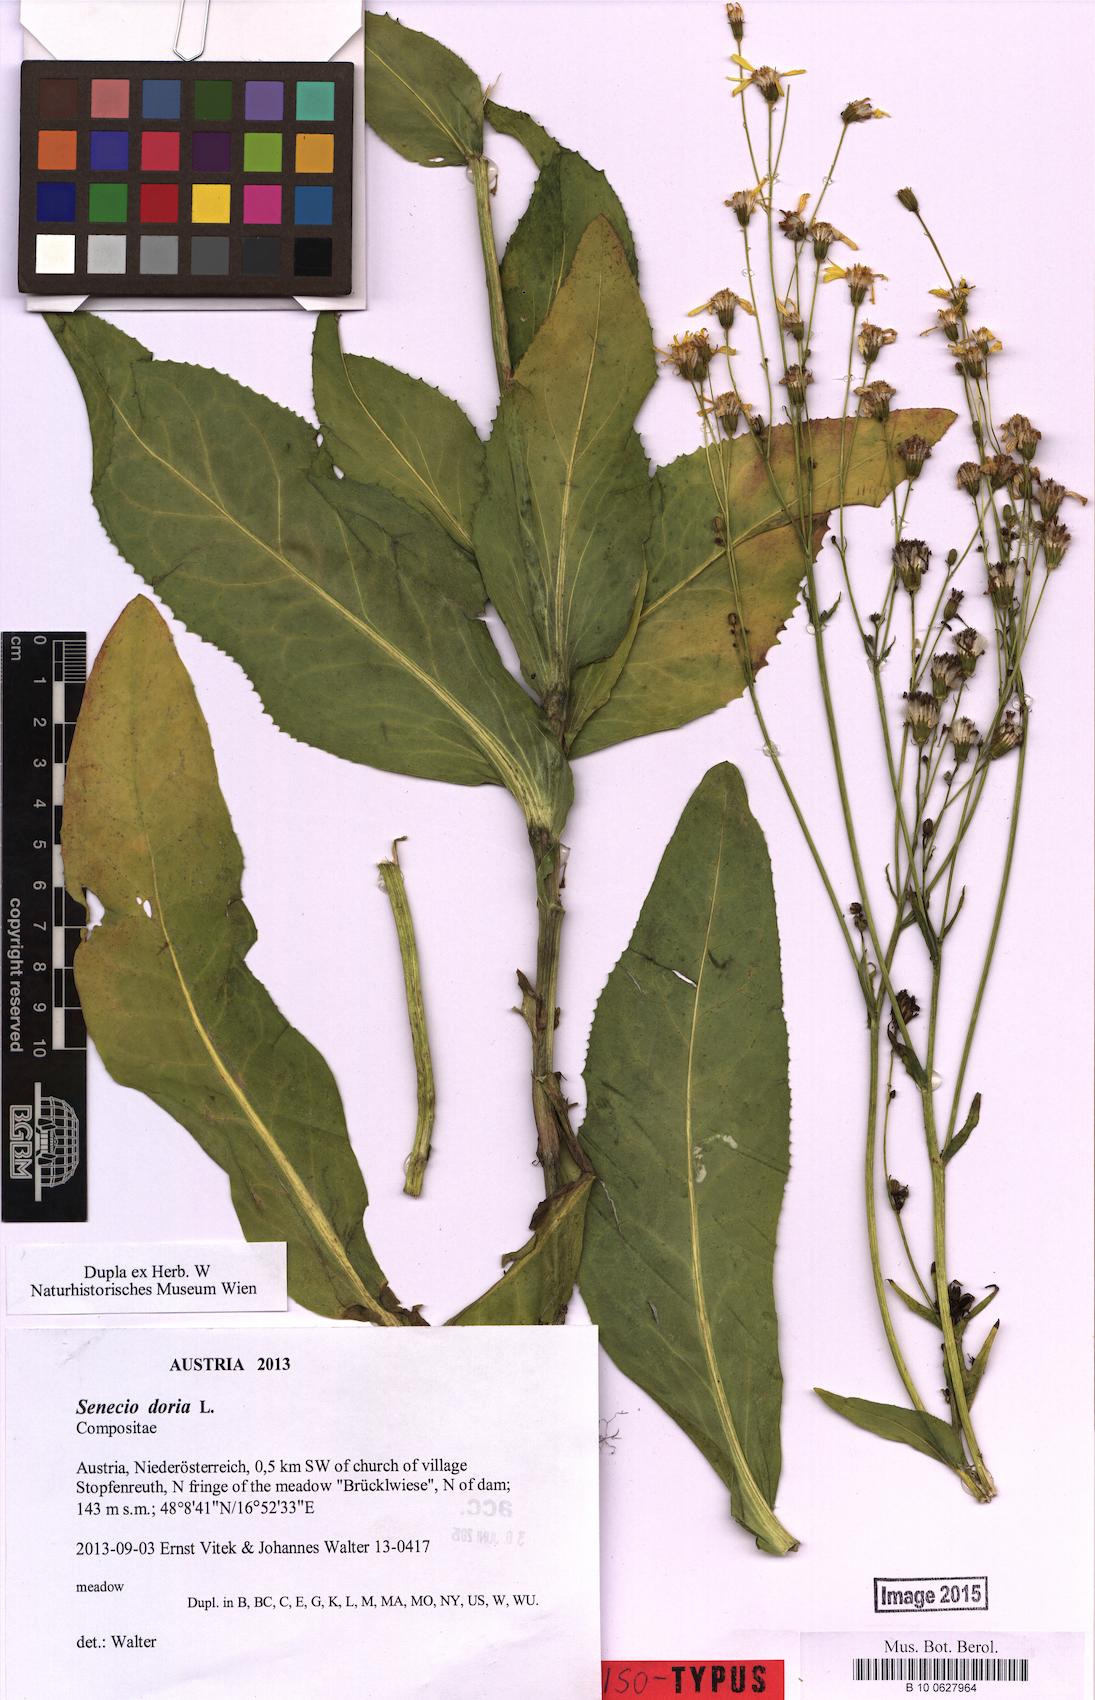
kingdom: Plantae
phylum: Tracheophyta
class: Magnoliopsida
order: Asterales
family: Asteraceae
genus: Senecio
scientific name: Senecio doria
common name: Golden ragwort
